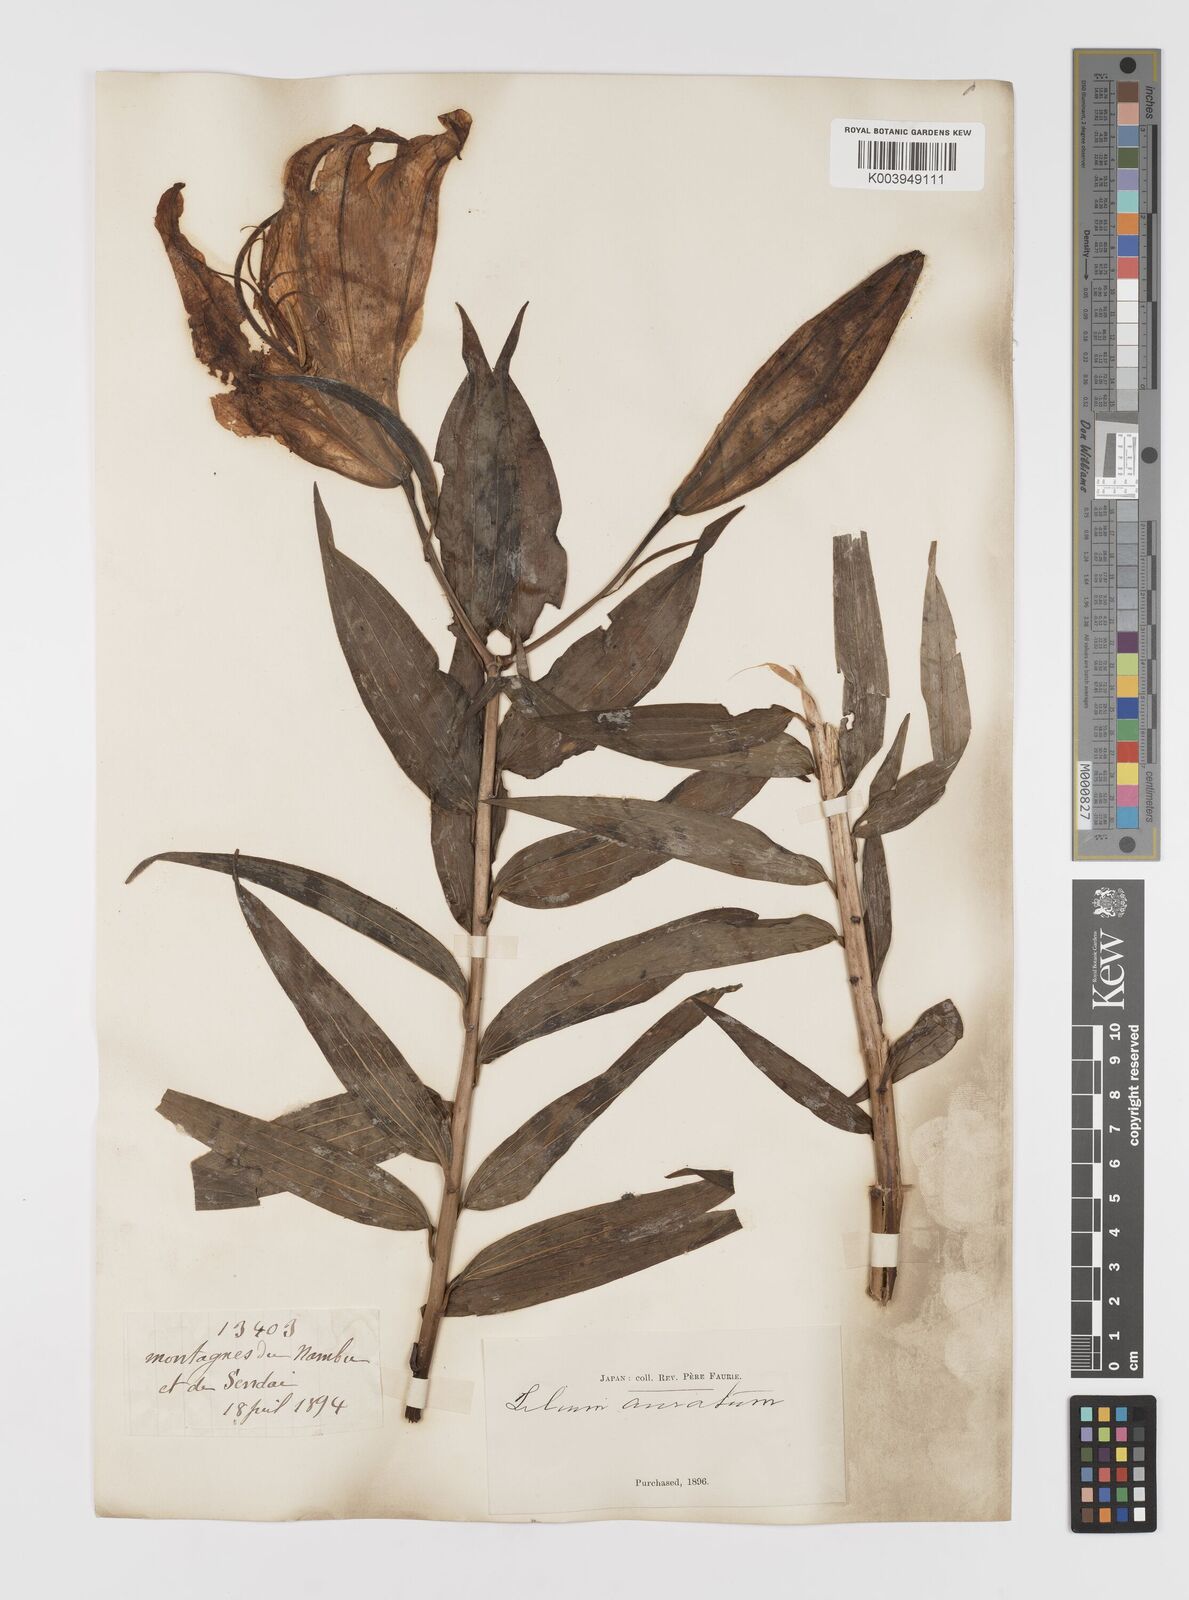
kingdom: Plantae
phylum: Tracheophyta
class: Liliopsida
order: Liliales
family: Liliaceae
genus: Lilium
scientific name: Lilium auratum
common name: Golden-ray lily
